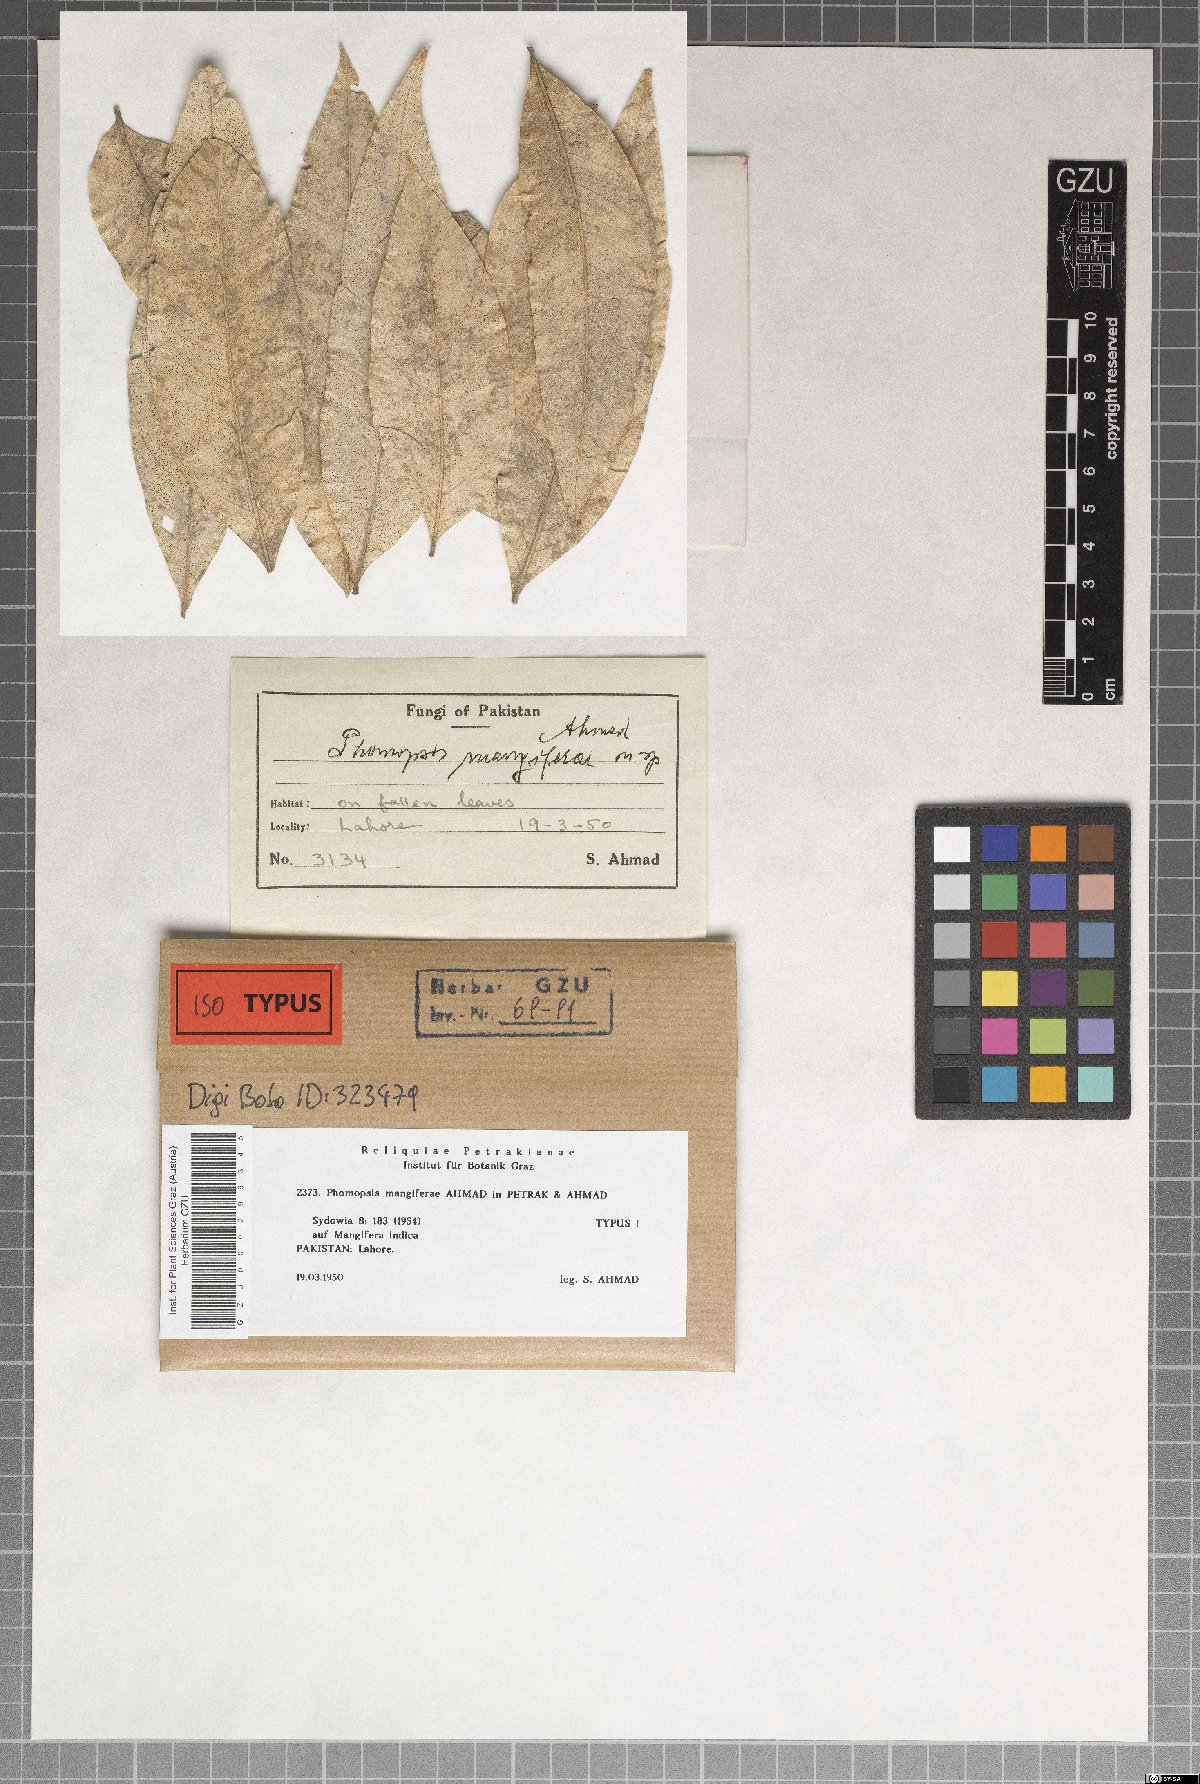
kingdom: Fungi
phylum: Ascomycota
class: Sordariomycetes
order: Diaporthales
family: Diaporthaceae
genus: Phomopsis
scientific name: Phomopsis mangiferae
